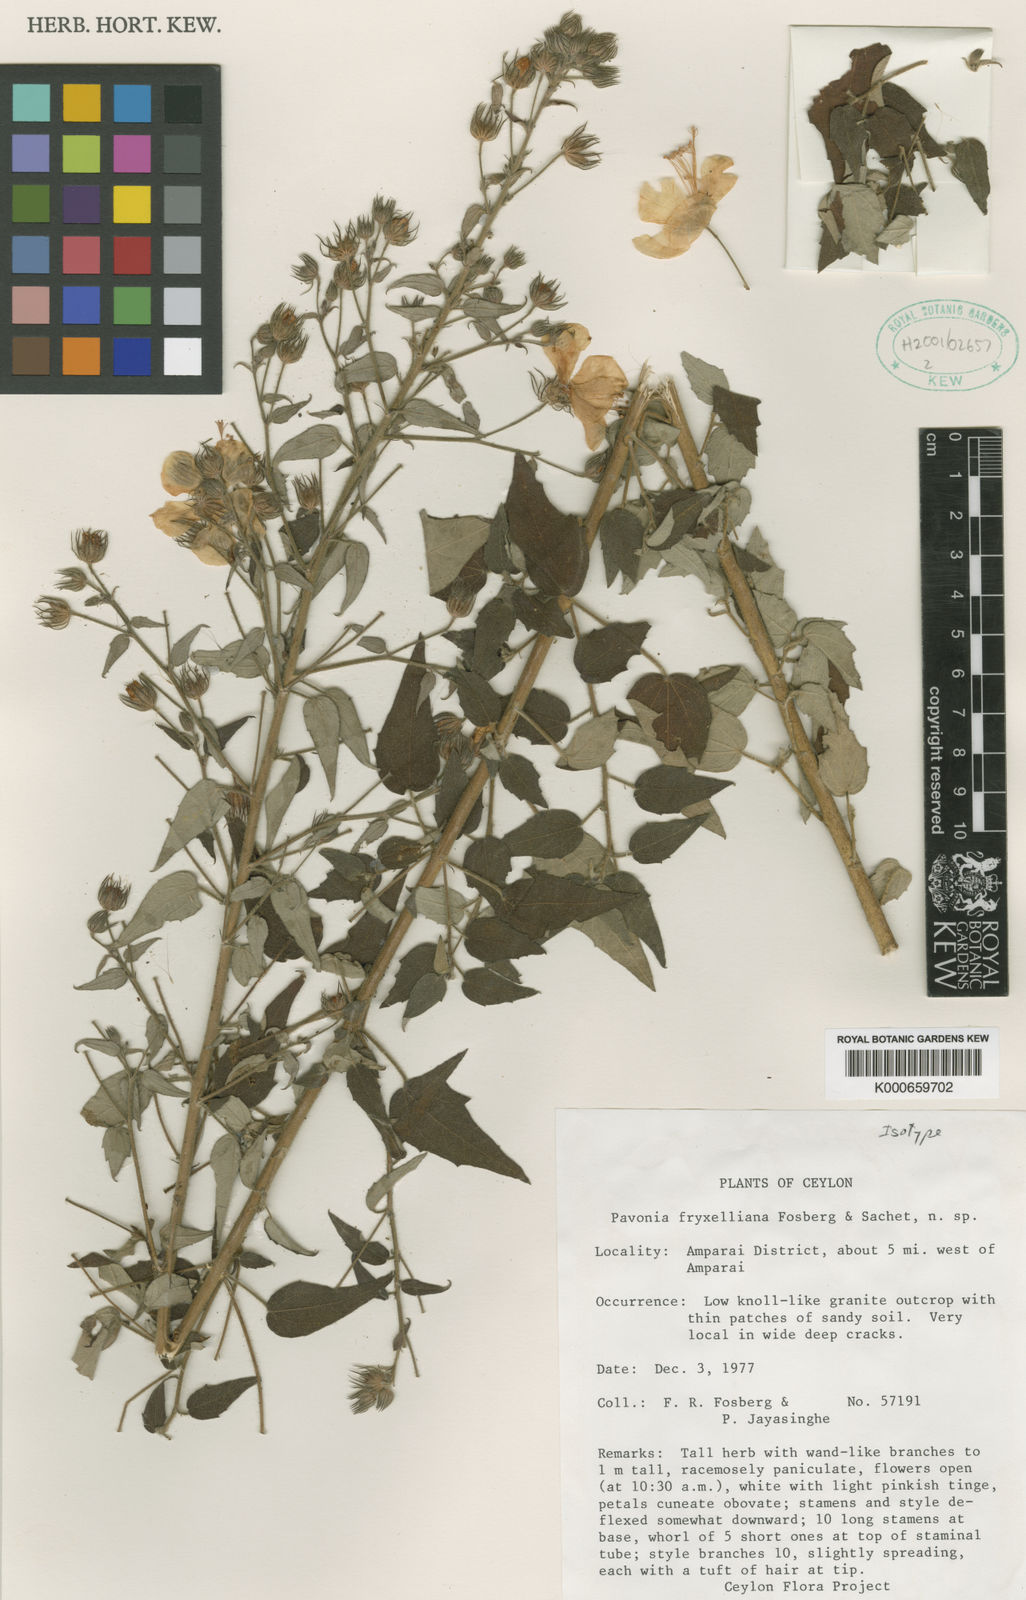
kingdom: Plantae
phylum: Tracheophyta
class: Magnoliopsida
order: Malvales
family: Malvaceae
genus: Pavonia
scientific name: Pavonia fryxelliana
